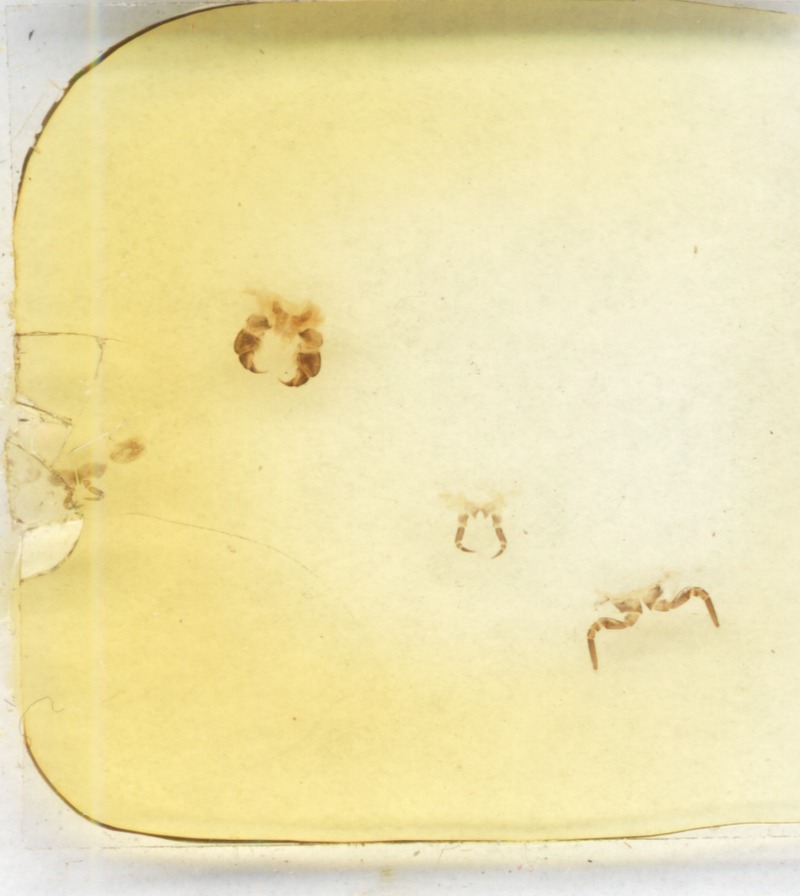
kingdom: Animalia
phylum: Arthropoda
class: Diplopoda
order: Glomerida
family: Glomeridae
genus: Glomeris
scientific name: Glomeris marginata
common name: Bordered pill millipede
